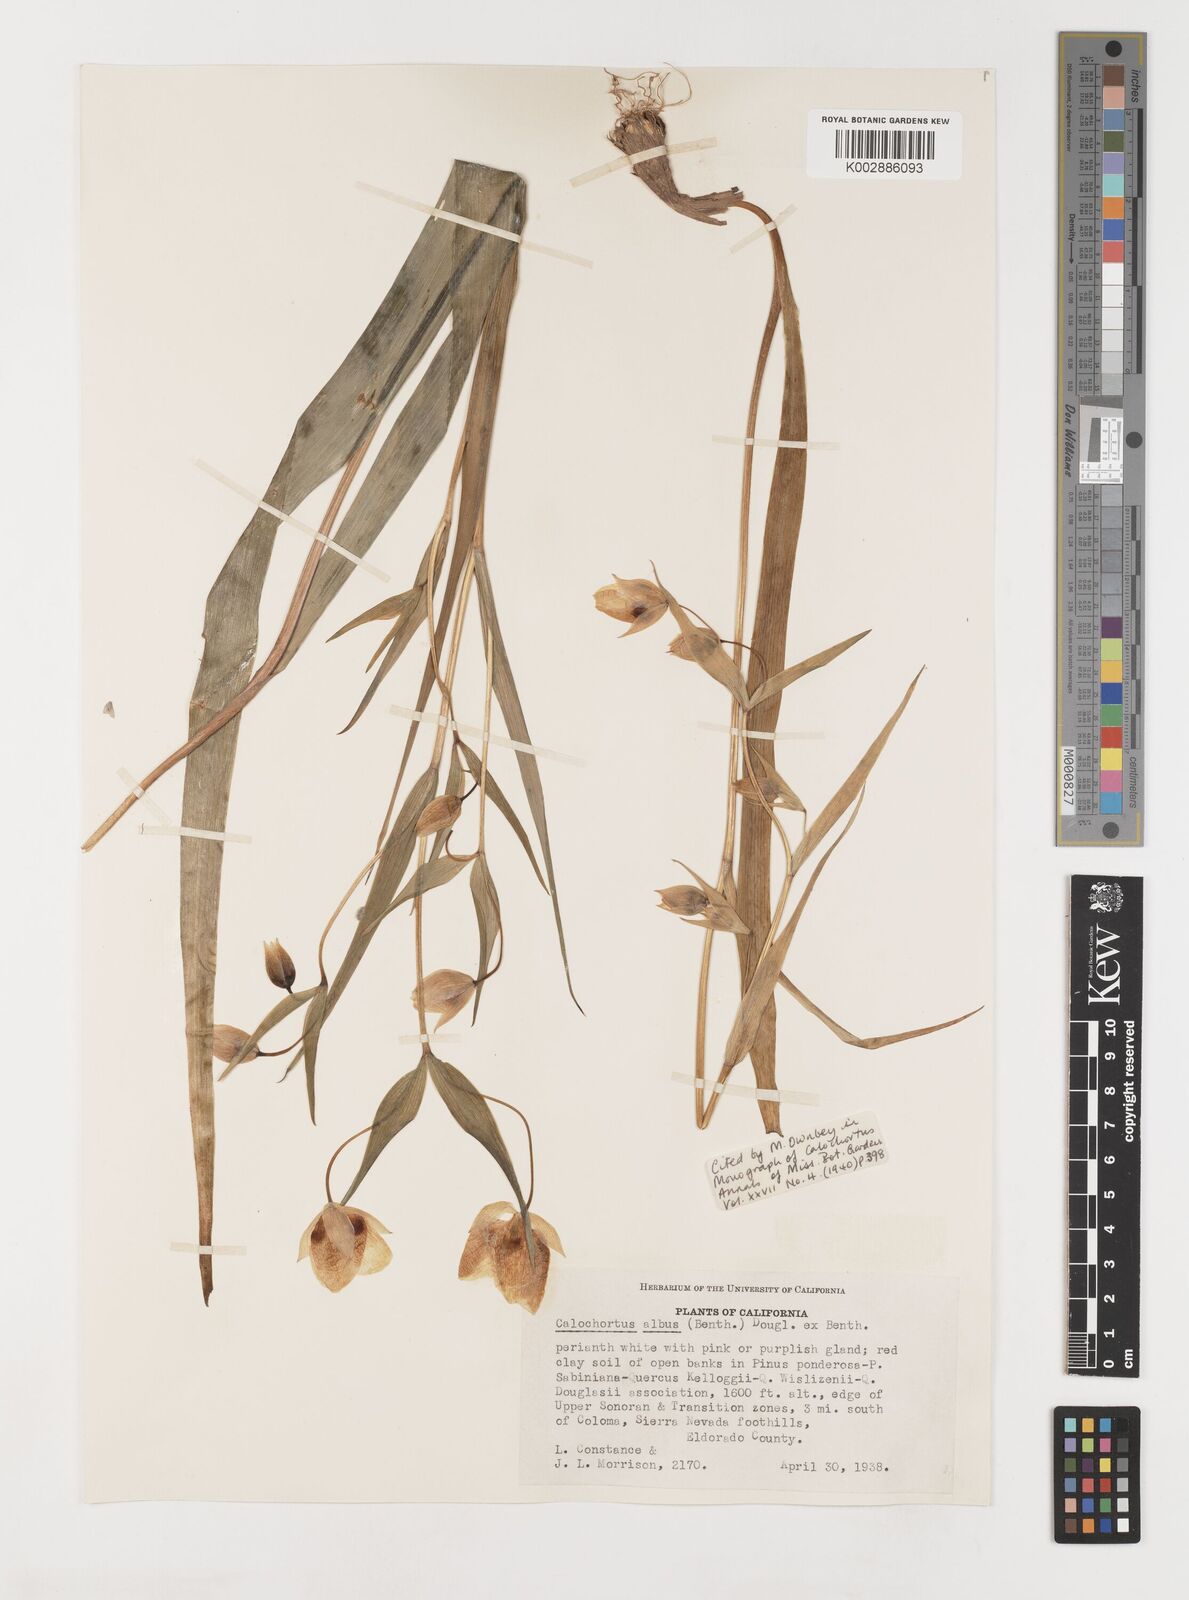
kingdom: Plantae
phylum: Tracheophyta
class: Liliopsida
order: Liliales
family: Liliaceae
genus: Calochortus
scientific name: Calochortus albus
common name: Fairy-lantern
